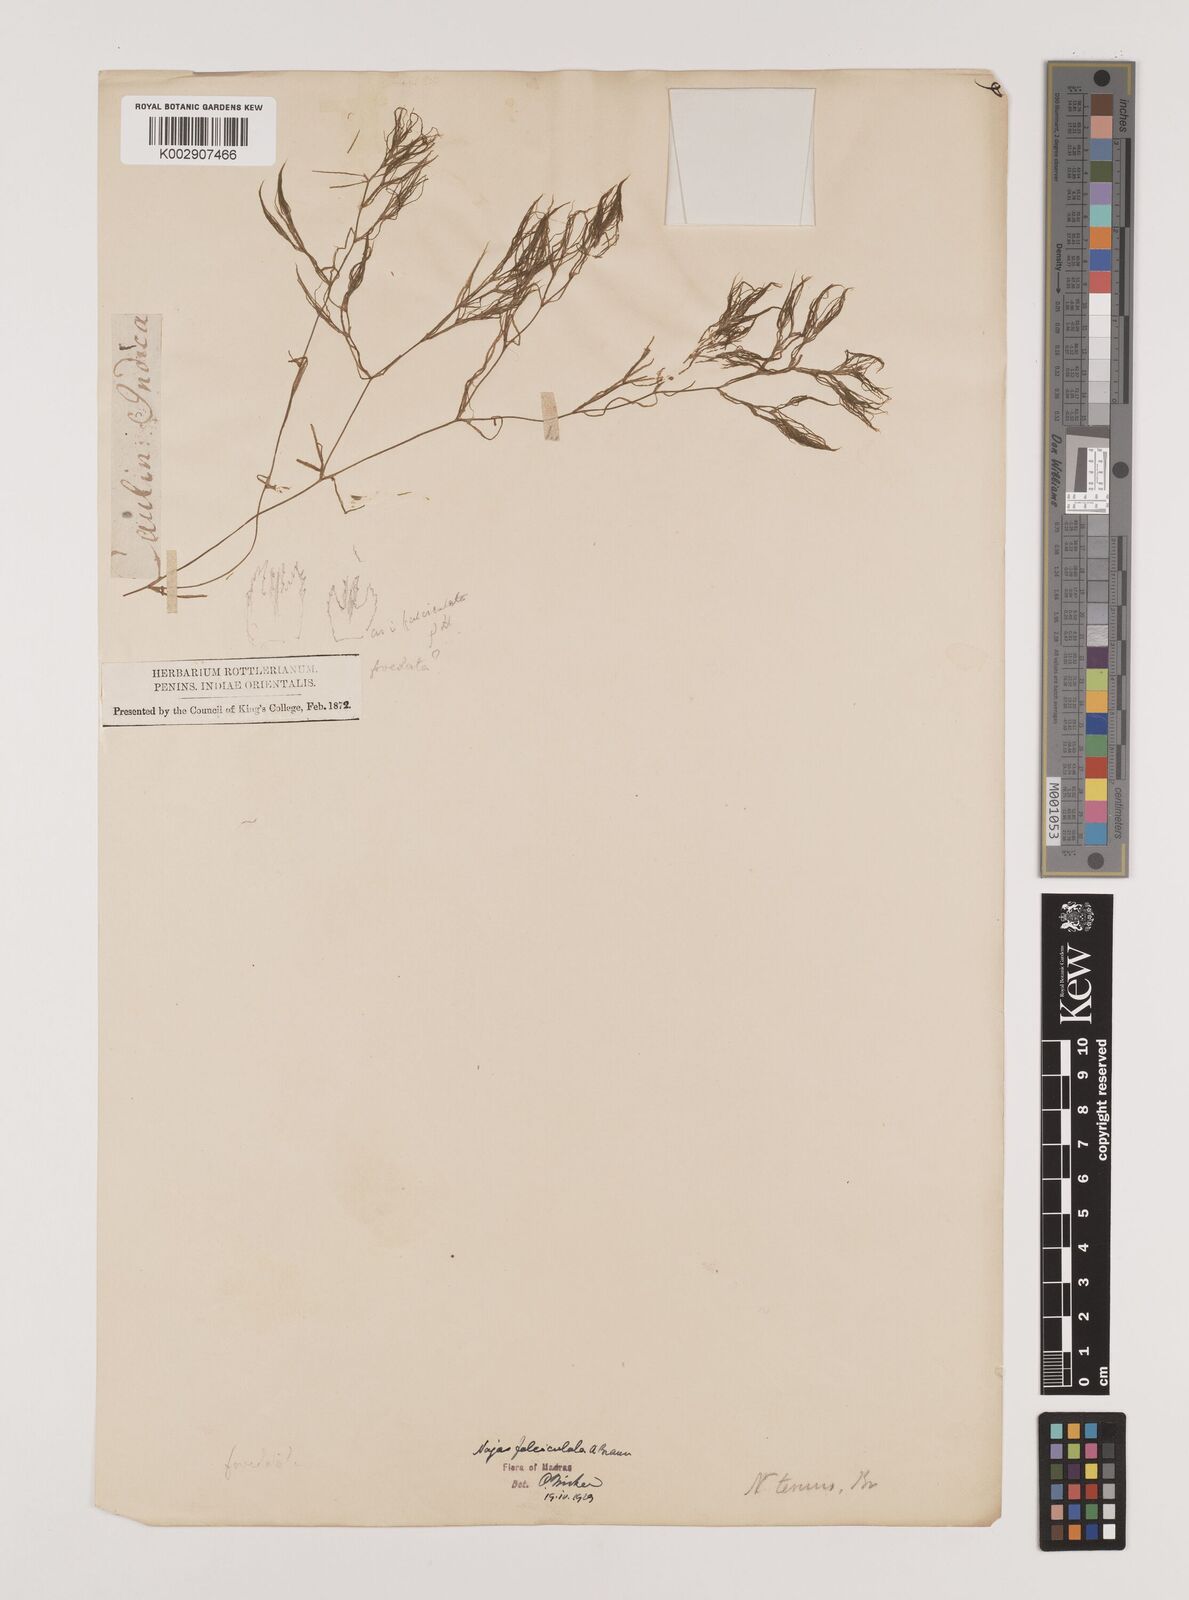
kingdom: Plantae
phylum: Tracheophyta
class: Liliopsida
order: Alismatales
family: Hydrocharitaceae
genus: Najas
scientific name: Najas indica
